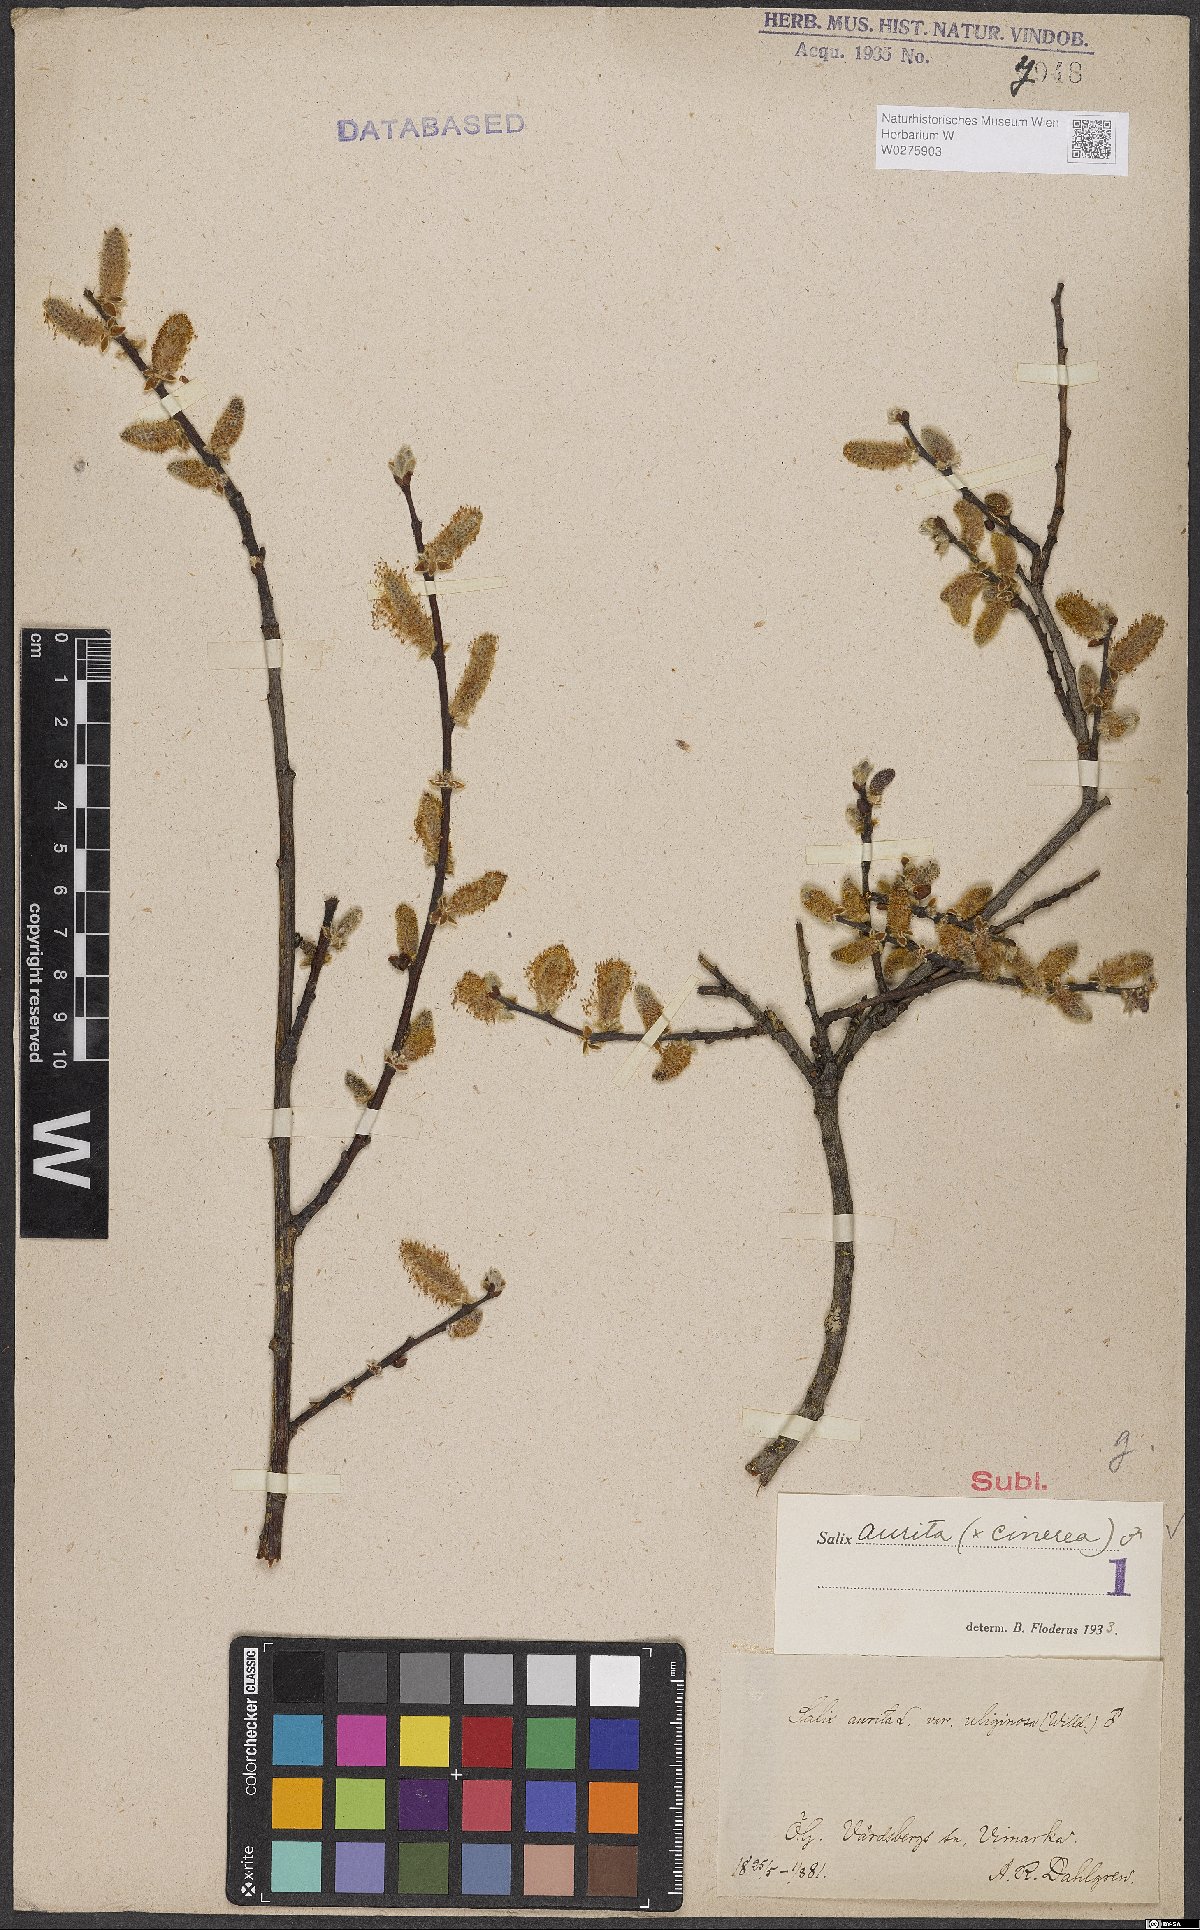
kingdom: Plantae
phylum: Tracheophyta
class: Magnoliopsida
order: Malpighiales
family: Salicaceae
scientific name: Salicaceae
